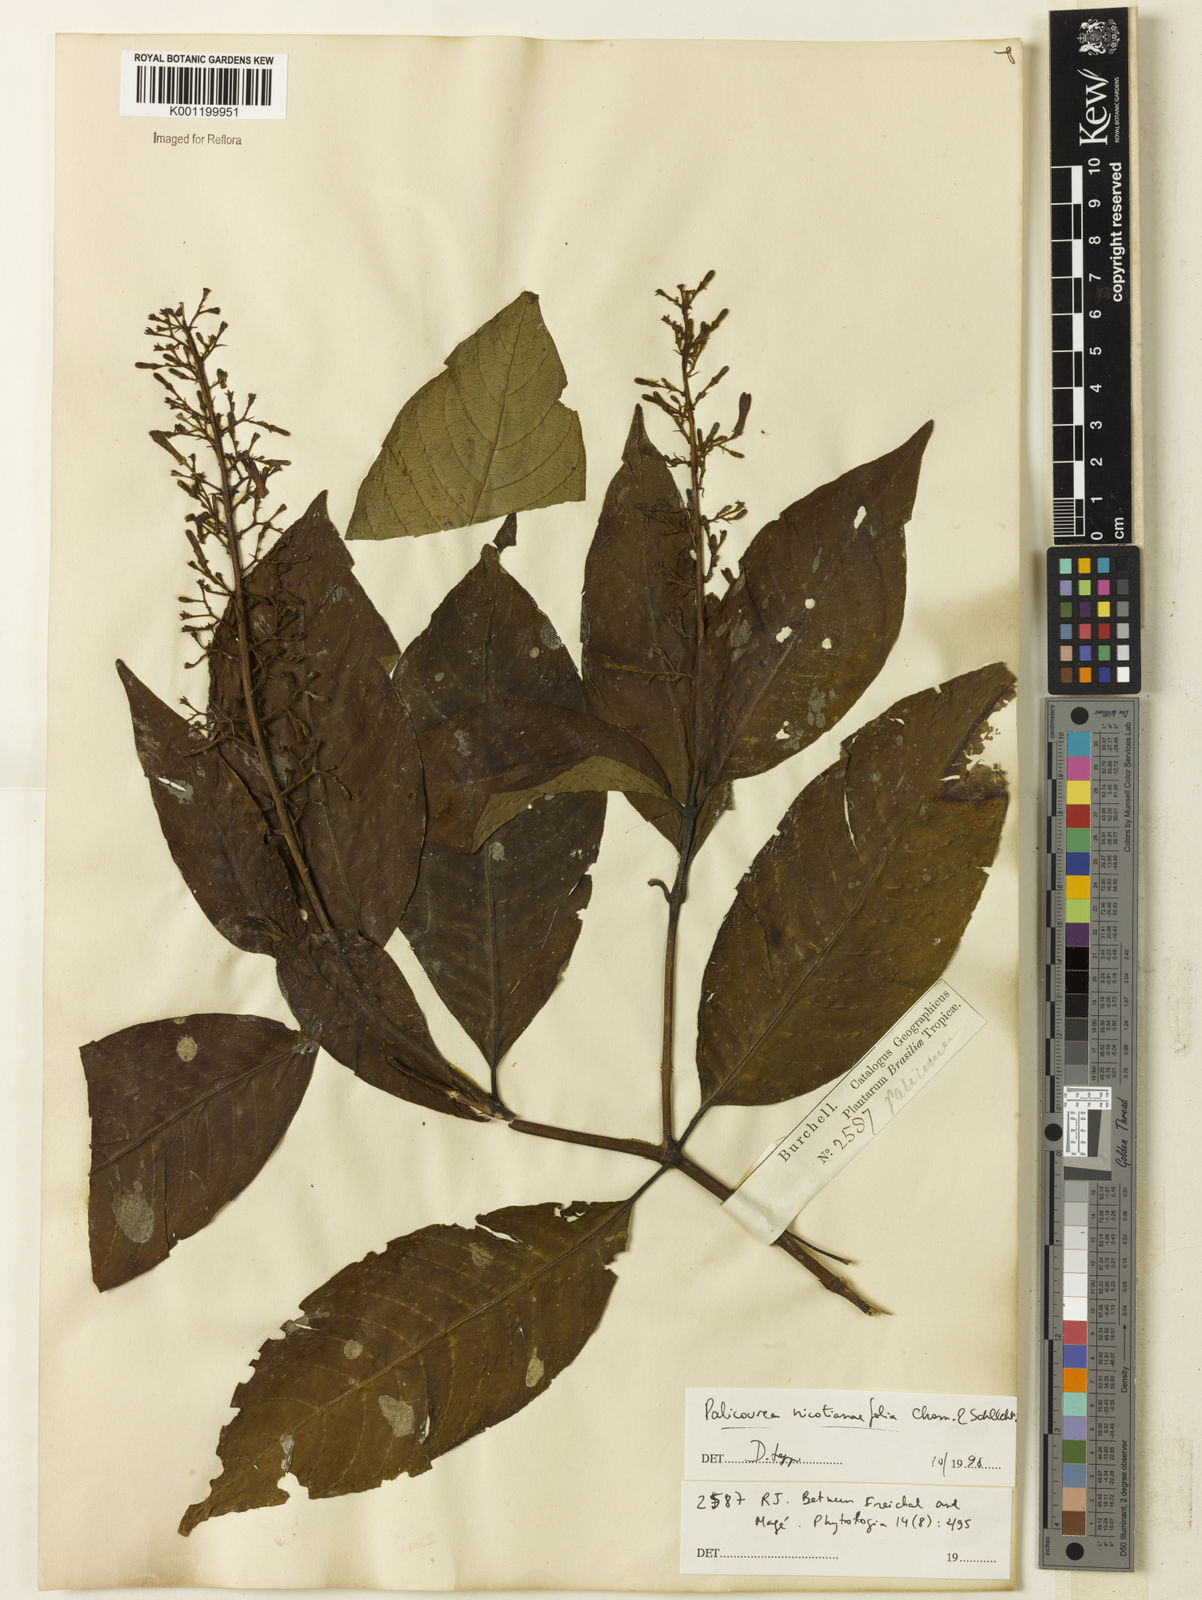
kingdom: Plantae
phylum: Tracheophyta
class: Magnoliopsida
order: Gentianales
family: Rubiaceae
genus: Palicourea
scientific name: Palicourea macrobotrys
